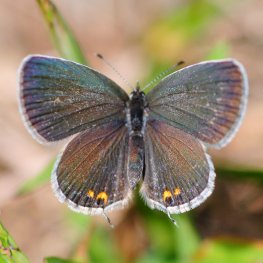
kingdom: Animalia
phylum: Arthropoda
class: Insecta
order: Lepidoptera
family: Lycaenidae
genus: Elkalyce
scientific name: Elkalyce comyntas
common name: Eastern Tailed-Blue
